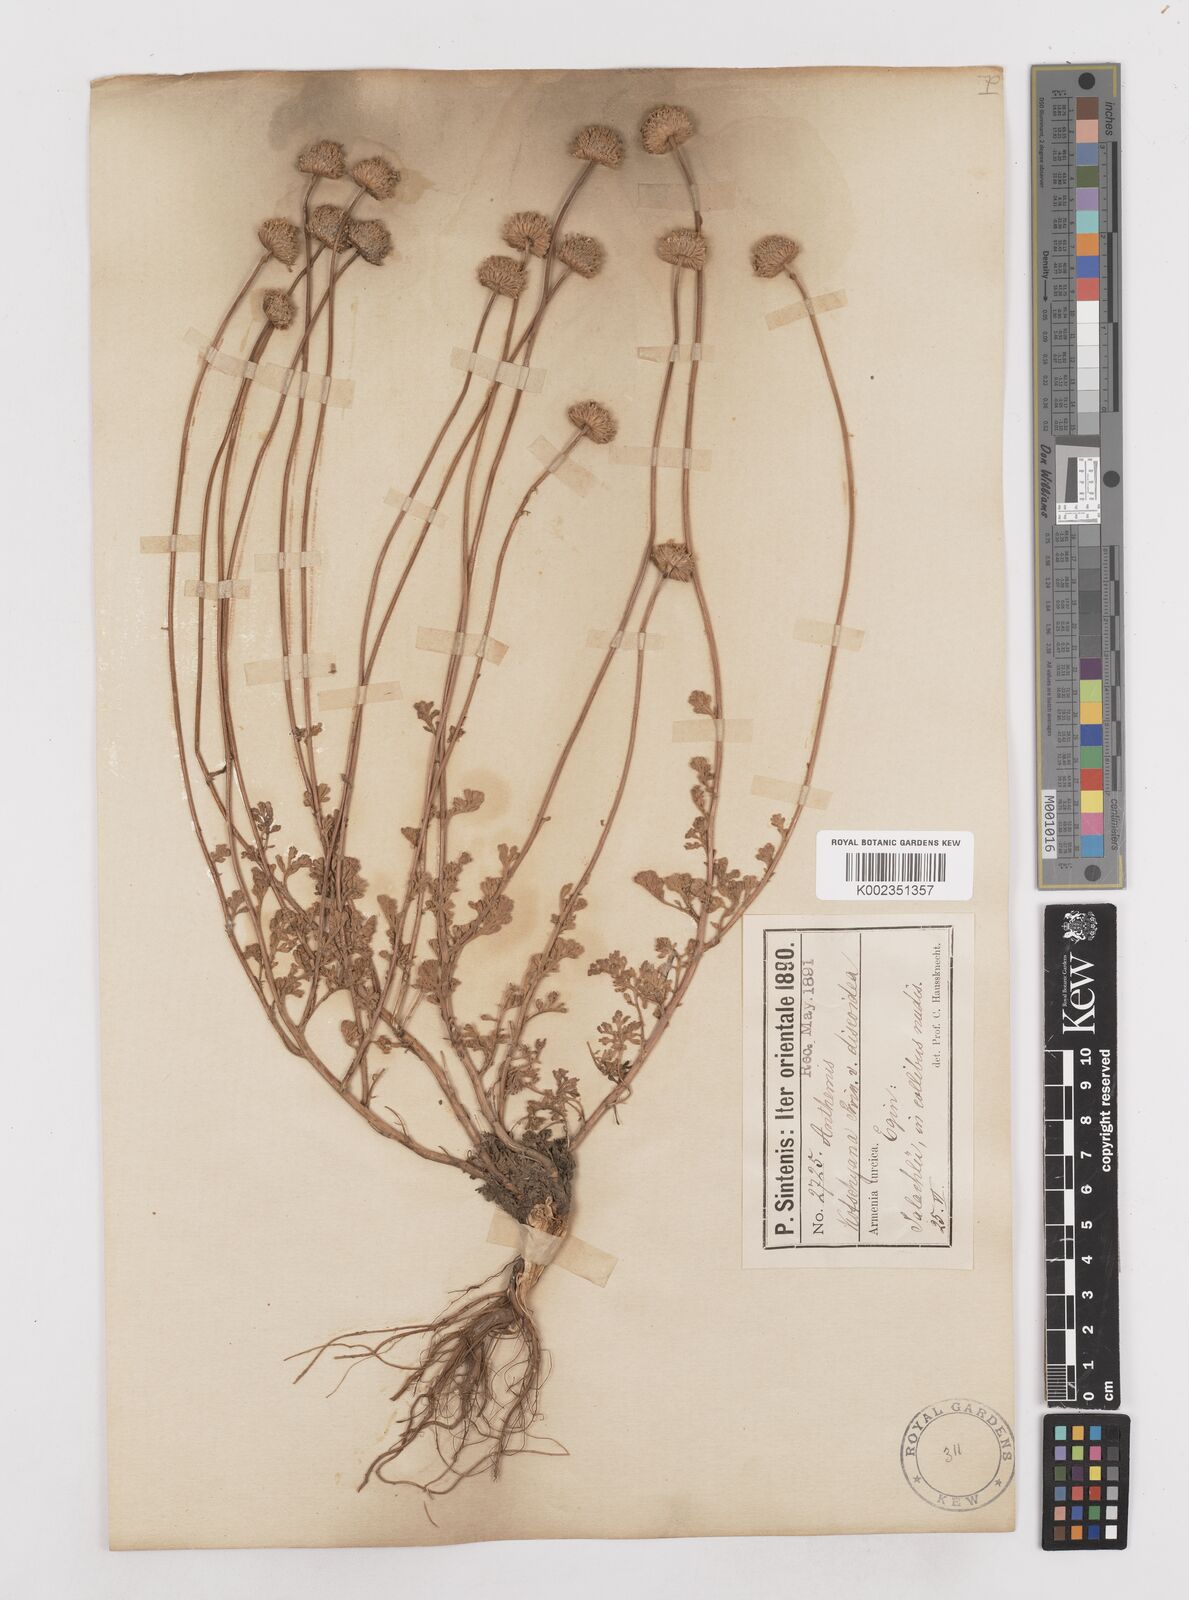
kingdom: Plantae
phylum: Tracheophyta
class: Magnoliopsida
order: Asterales
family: Asteraceae
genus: Anthemis
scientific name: Anthemis kotschyana
